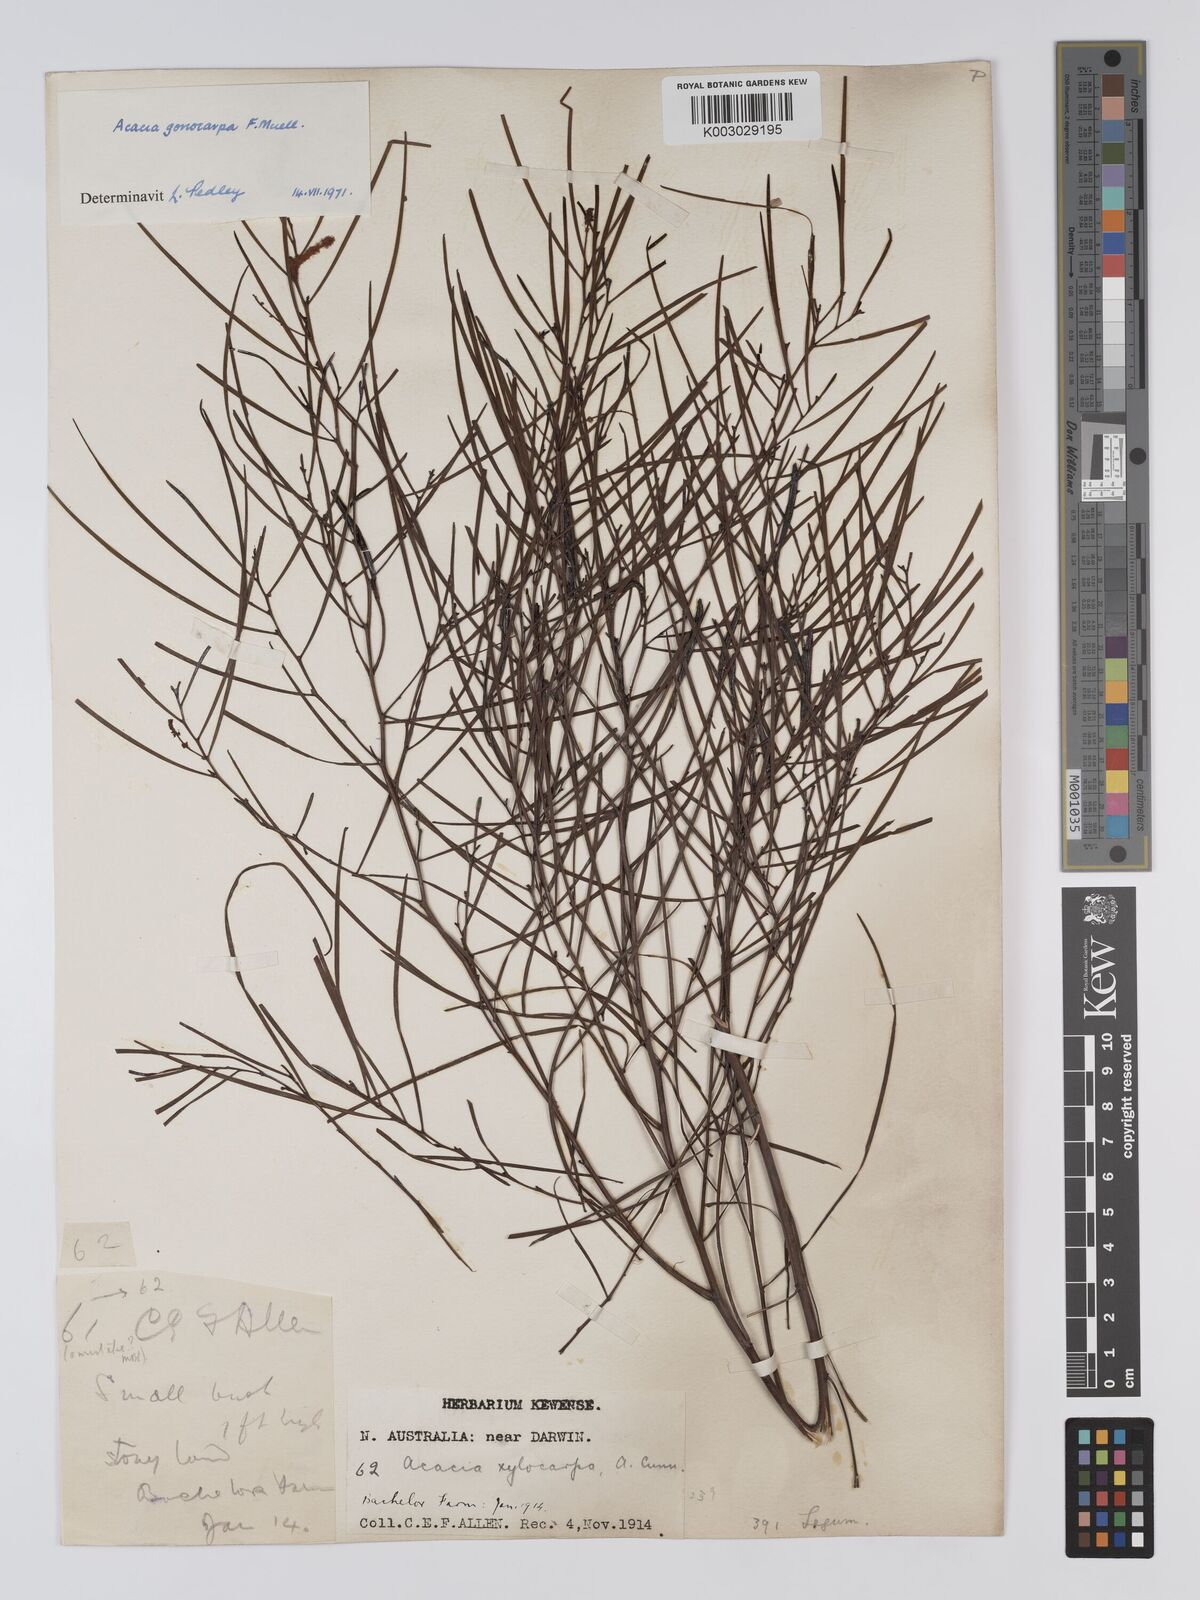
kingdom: Plantae
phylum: Tracheophyta
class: Magnoliopsida
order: Fabales
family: Fabaceae
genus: Acacia
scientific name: Acacia gonocarpa
